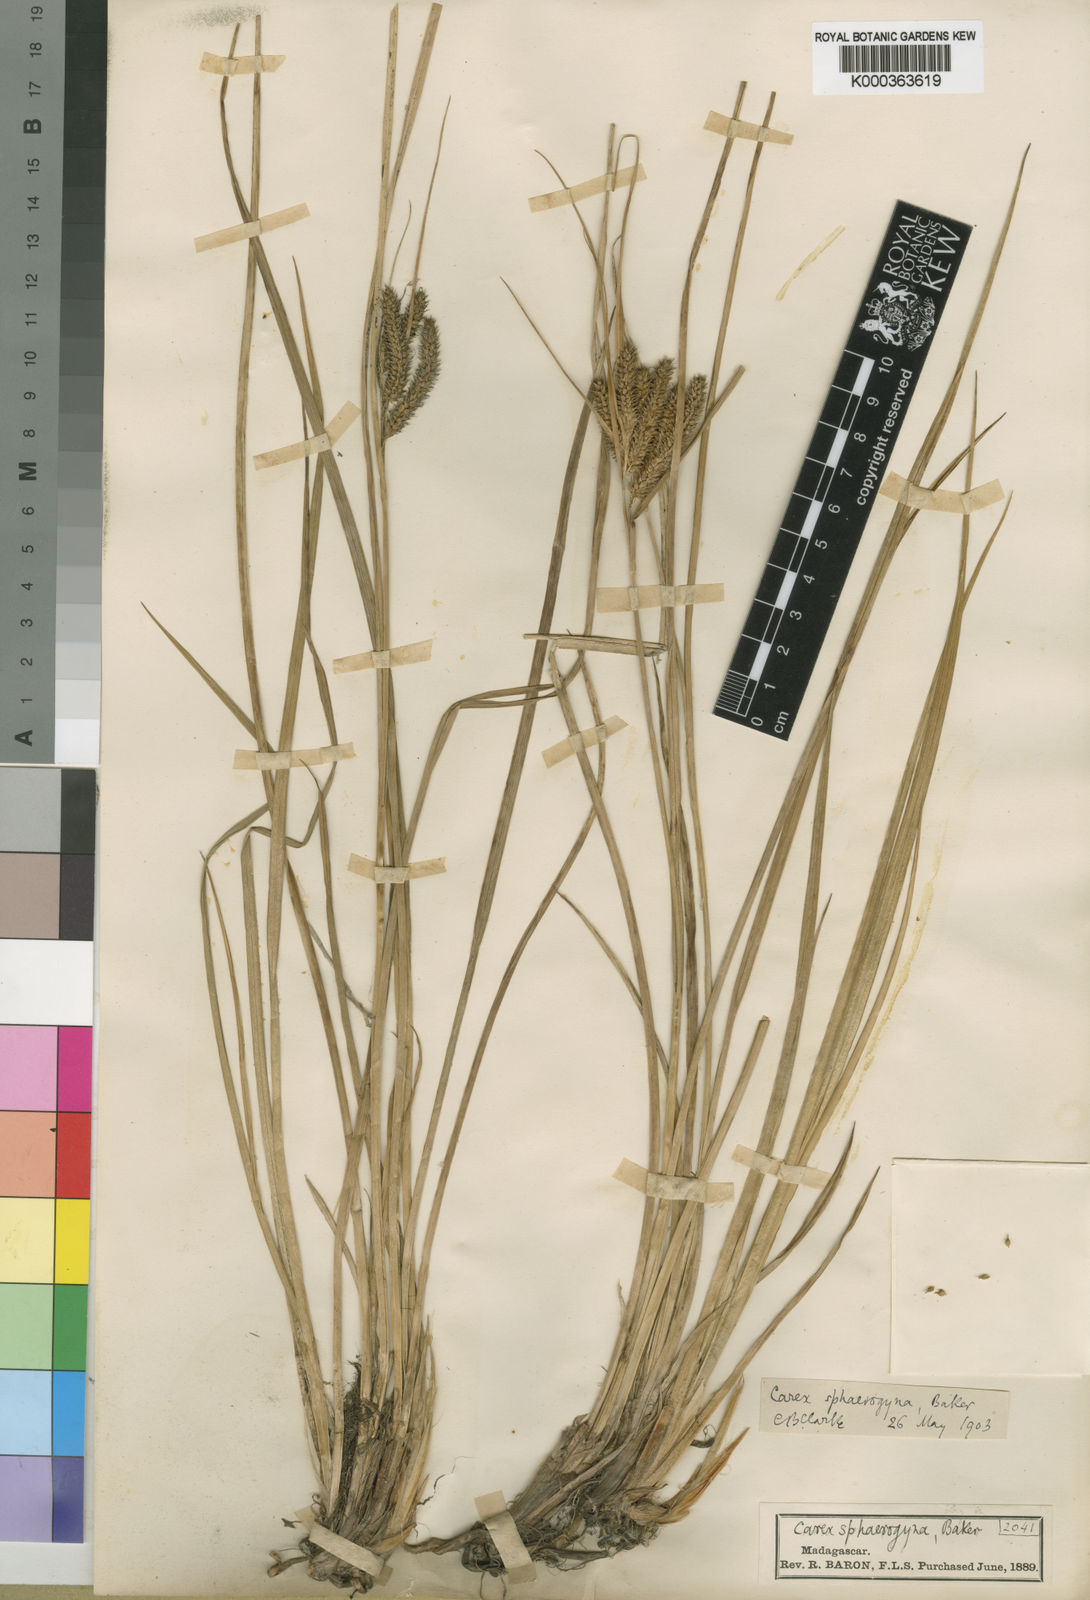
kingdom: Plantae
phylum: Tracheophyta
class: Liliopsida
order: Poales
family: Cyperaceae
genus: Carex
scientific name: Carex sphaerogyna
